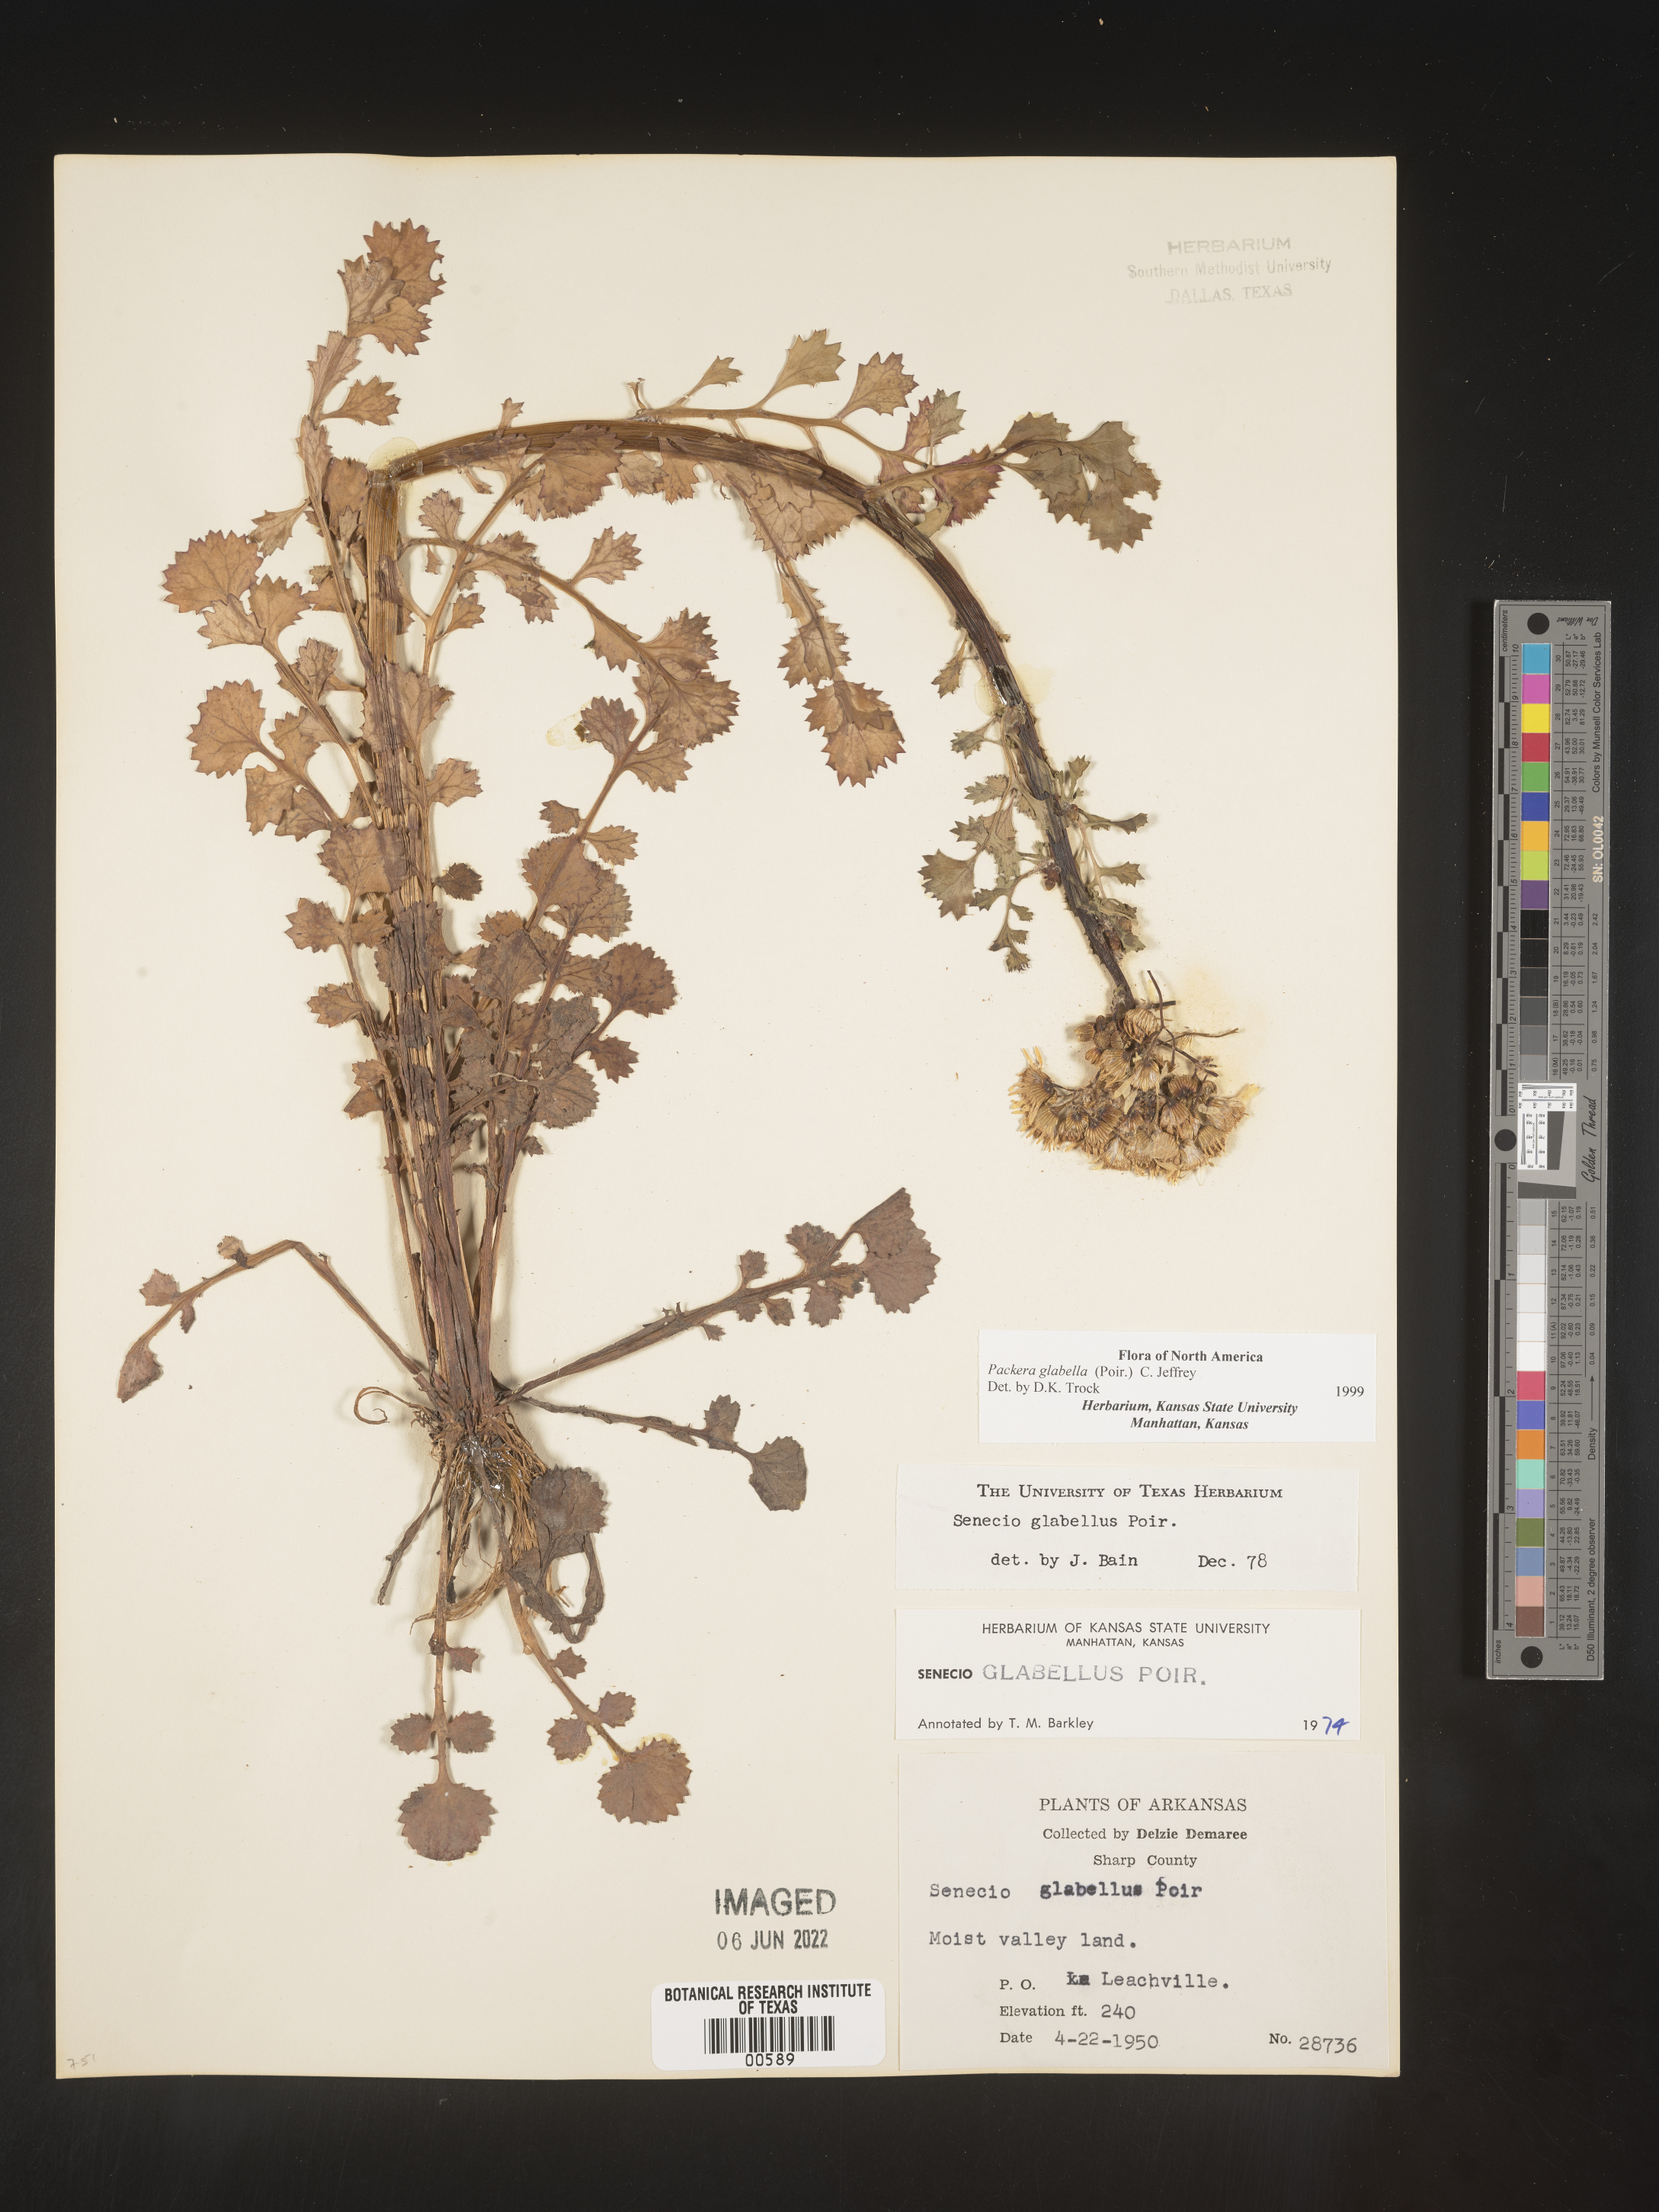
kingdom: Plantae
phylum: Tracheophyta
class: Magnoliopsida
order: Asterales
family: Asteraceae
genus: Packera
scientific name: Packera glabella
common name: Butterweed
